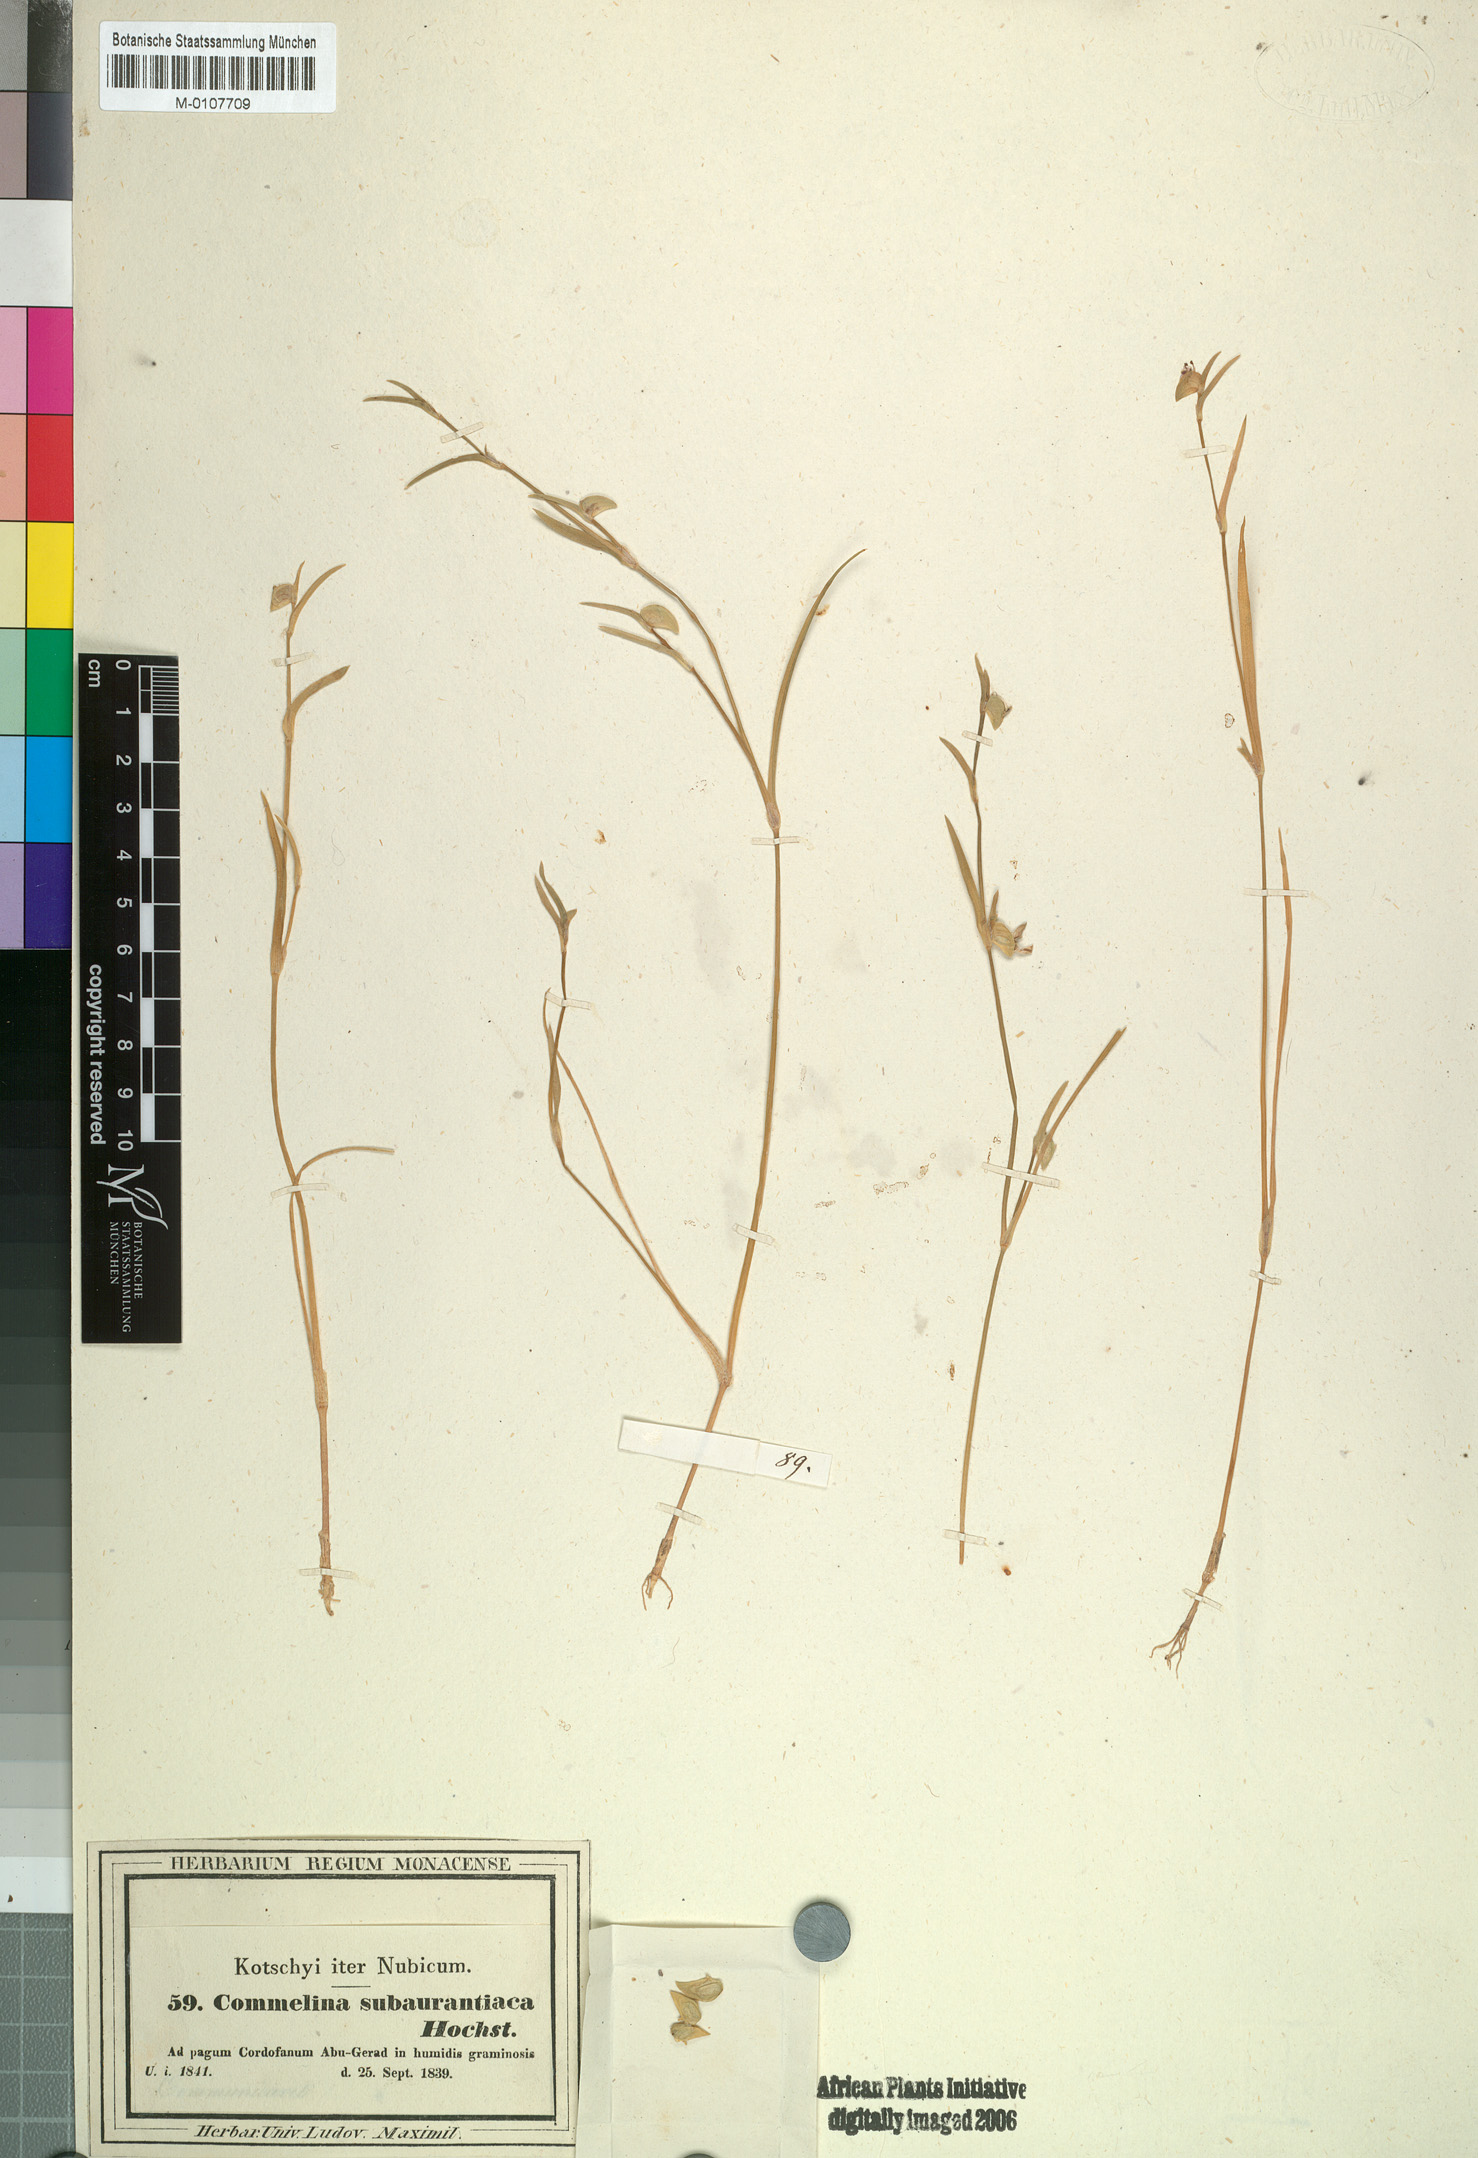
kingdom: Plantae
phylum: Tracheophyta
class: Liliopsida
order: Commelinales
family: Commelinaceae
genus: Commelina
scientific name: Commelina subulata
